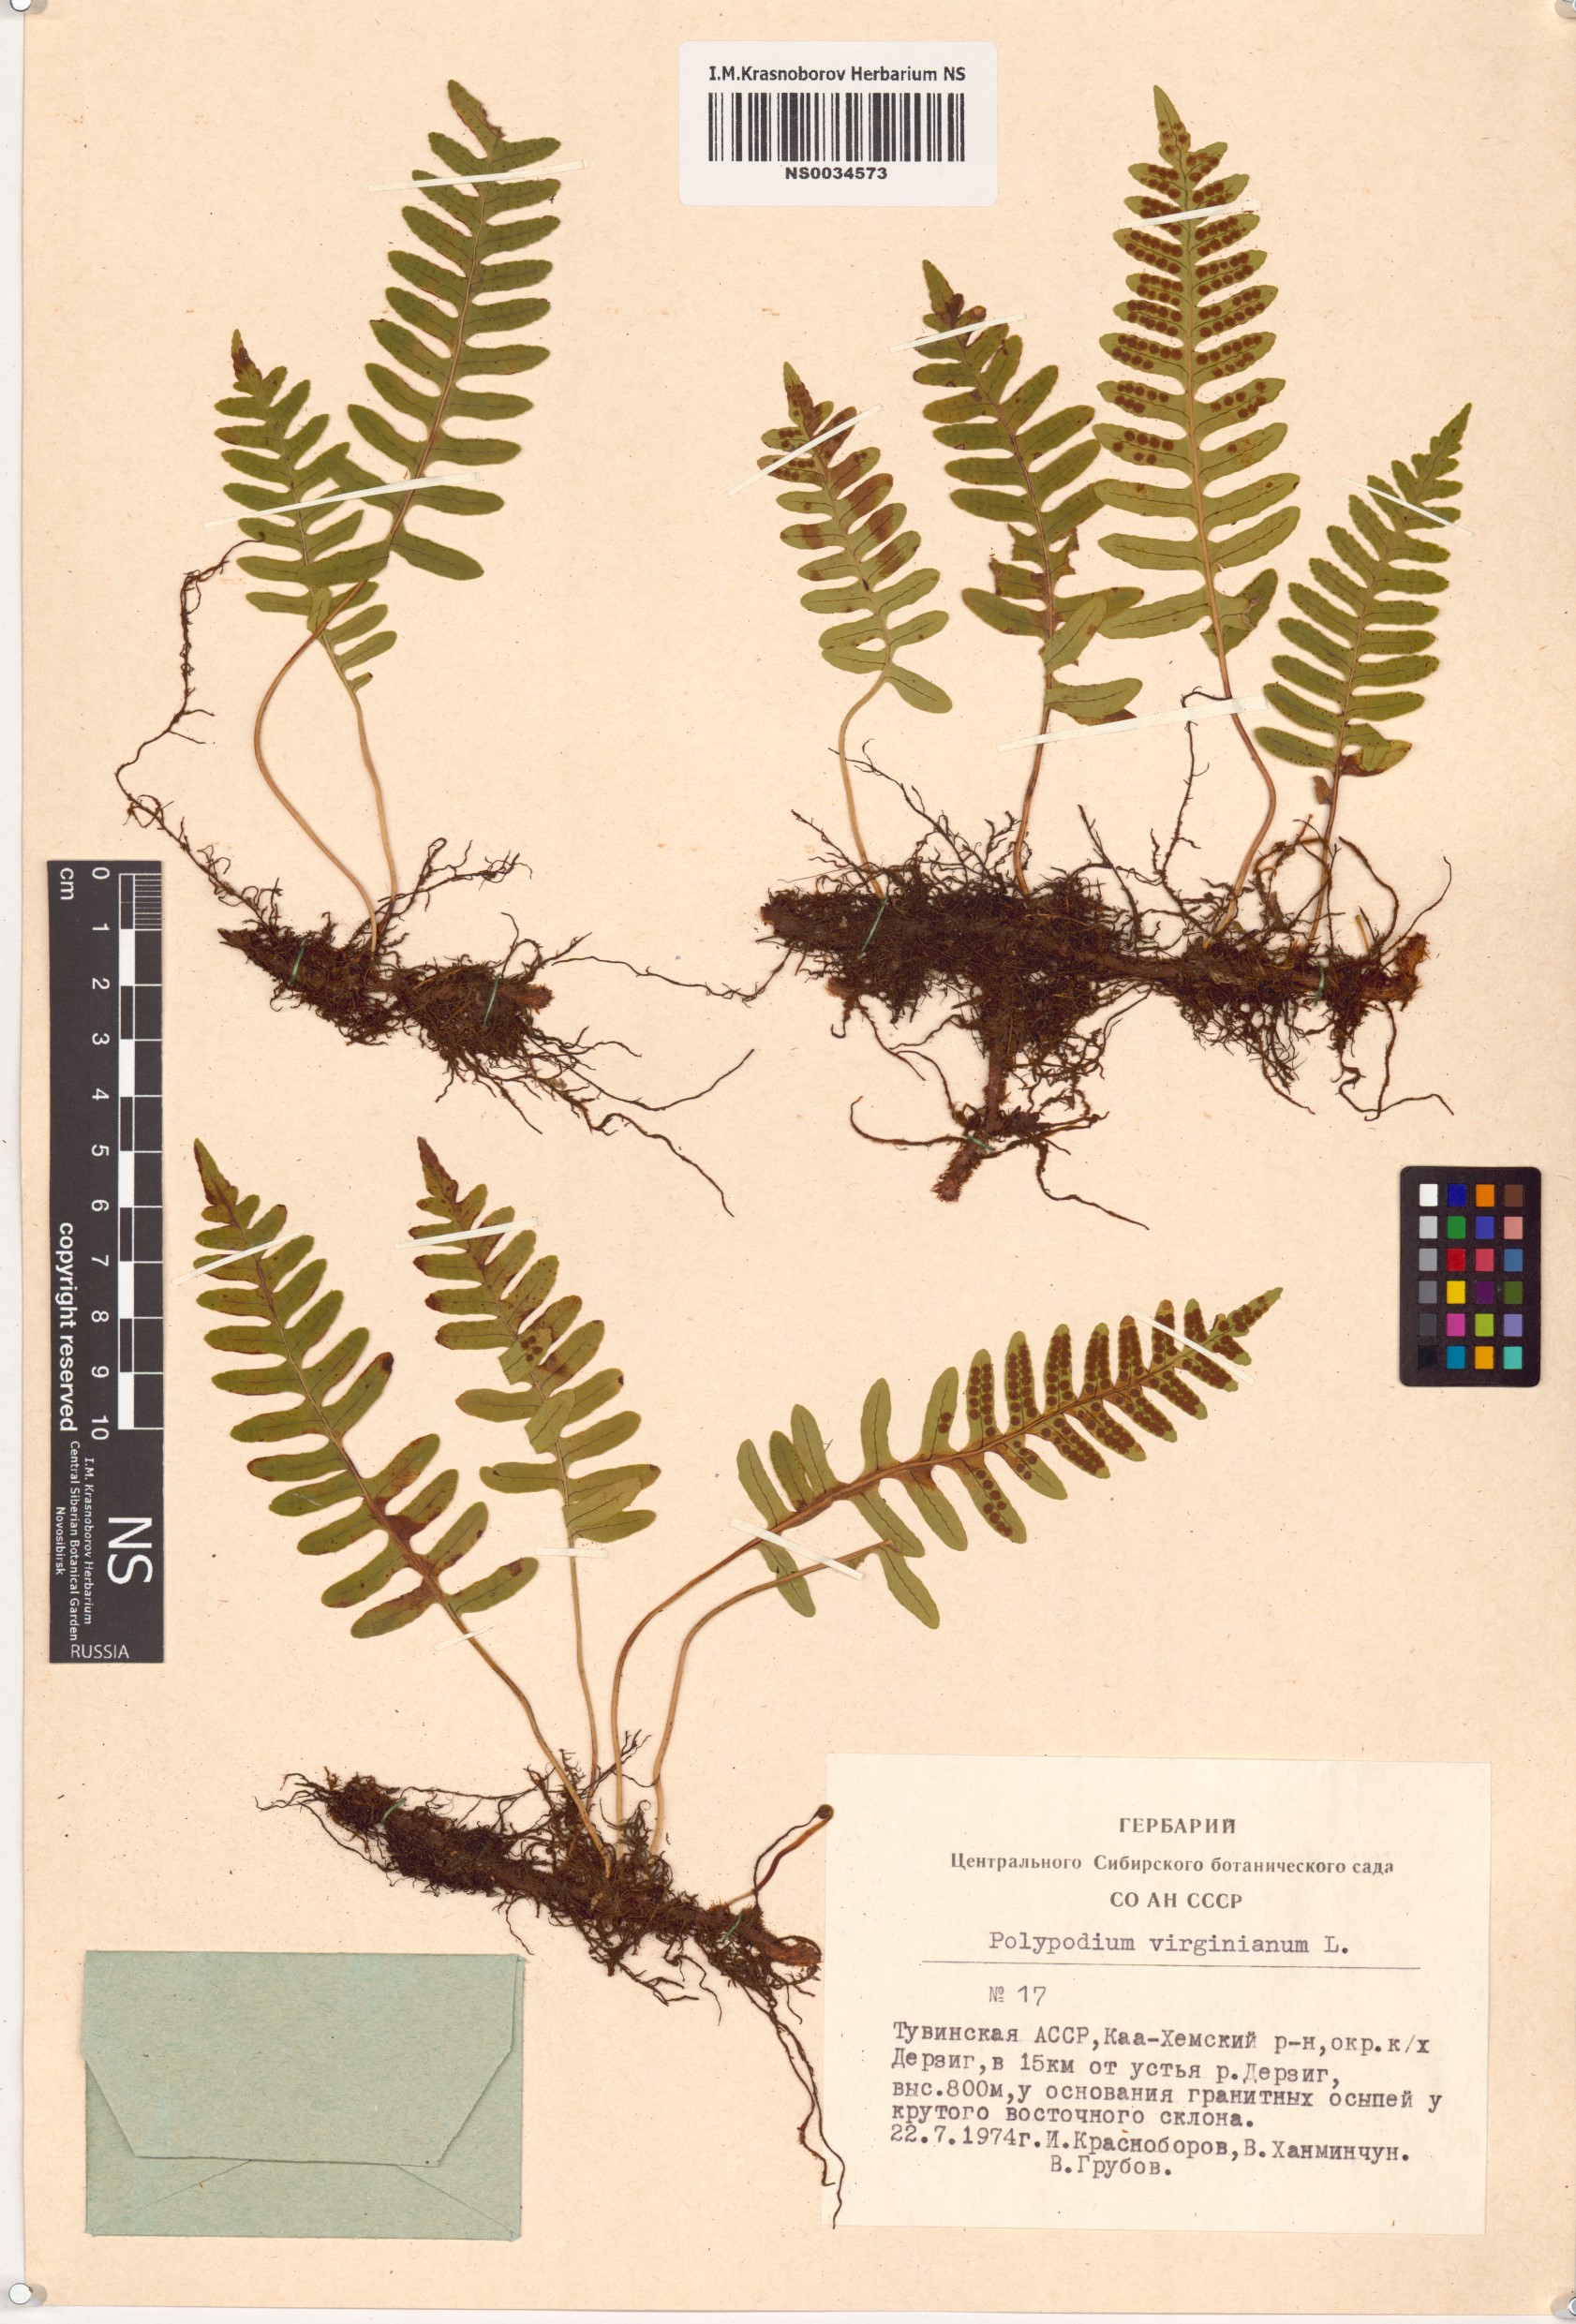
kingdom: Plantae
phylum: Tracheophyta
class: Polypodiopsida
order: Polypodiales
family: Polypodiaceae
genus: Polypodium
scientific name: Polypodium virginianum
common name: American wall fern
